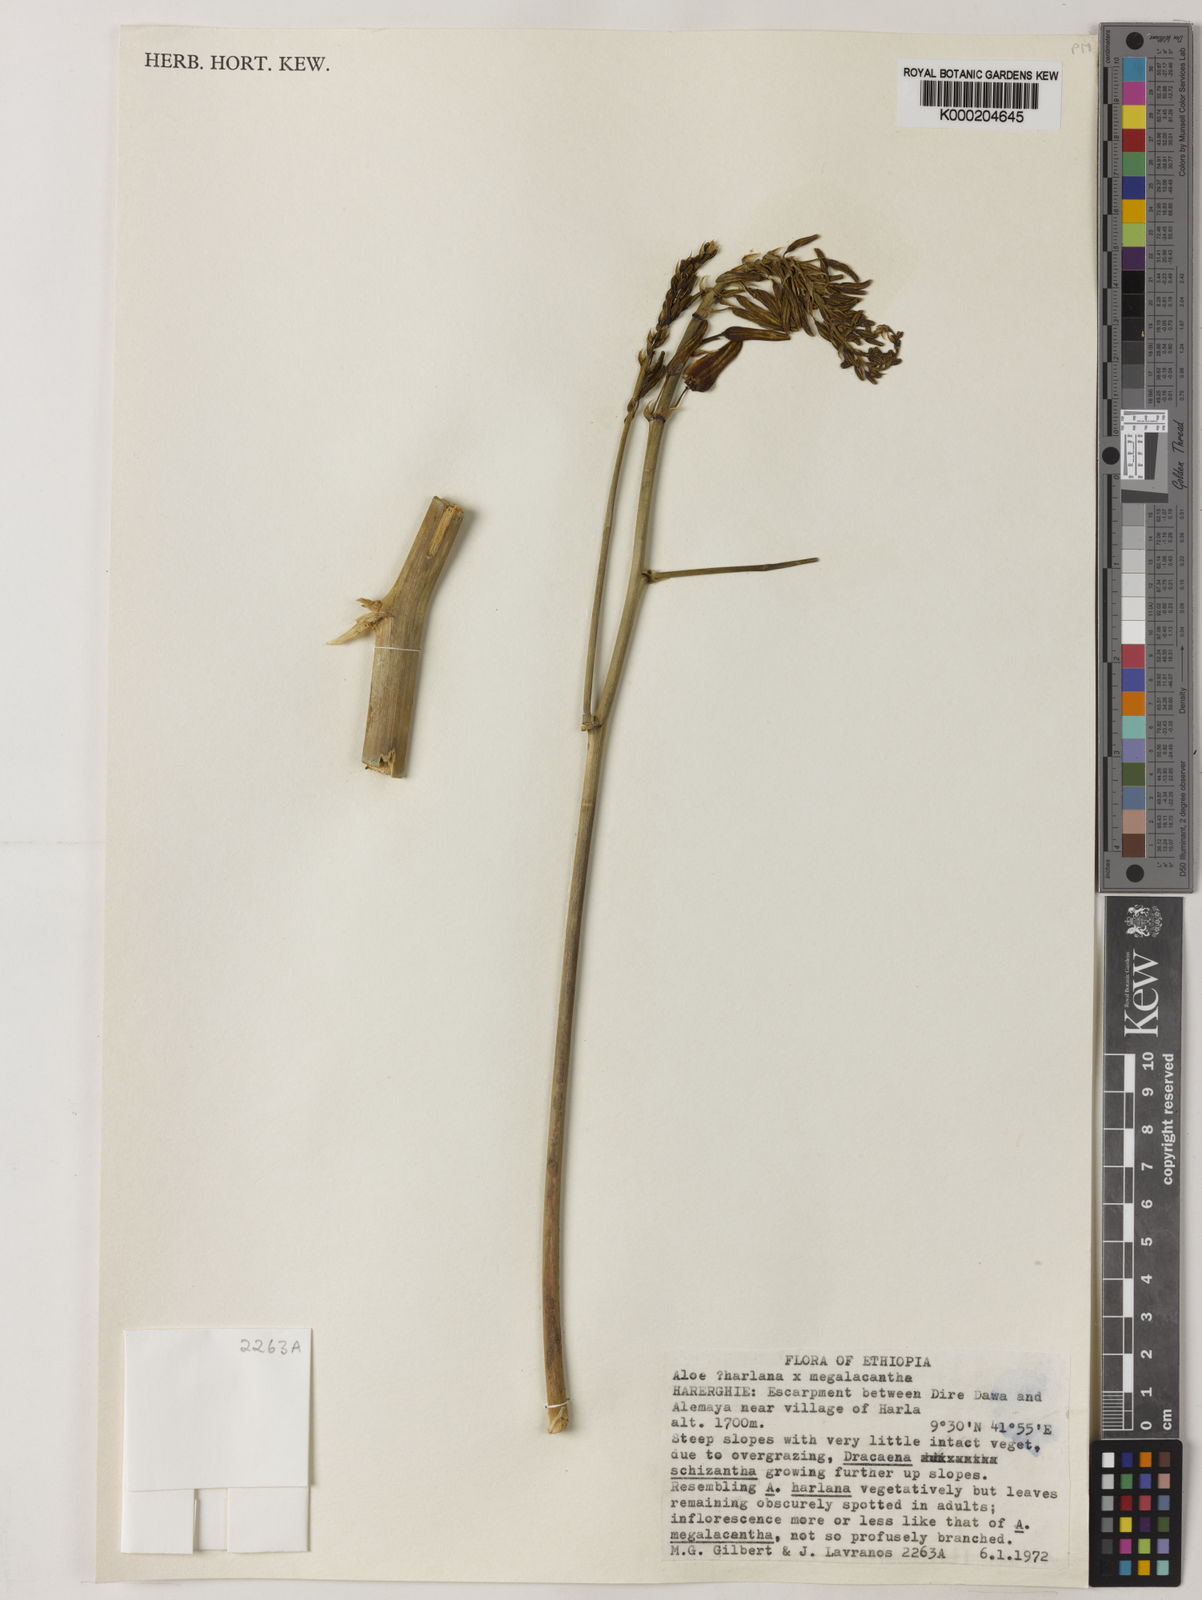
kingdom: Plantae
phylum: Tracheophyta
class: Liliopsida
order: Asparagales
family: Asphodelaceae
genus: Aloe
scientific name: Aloe harlana
